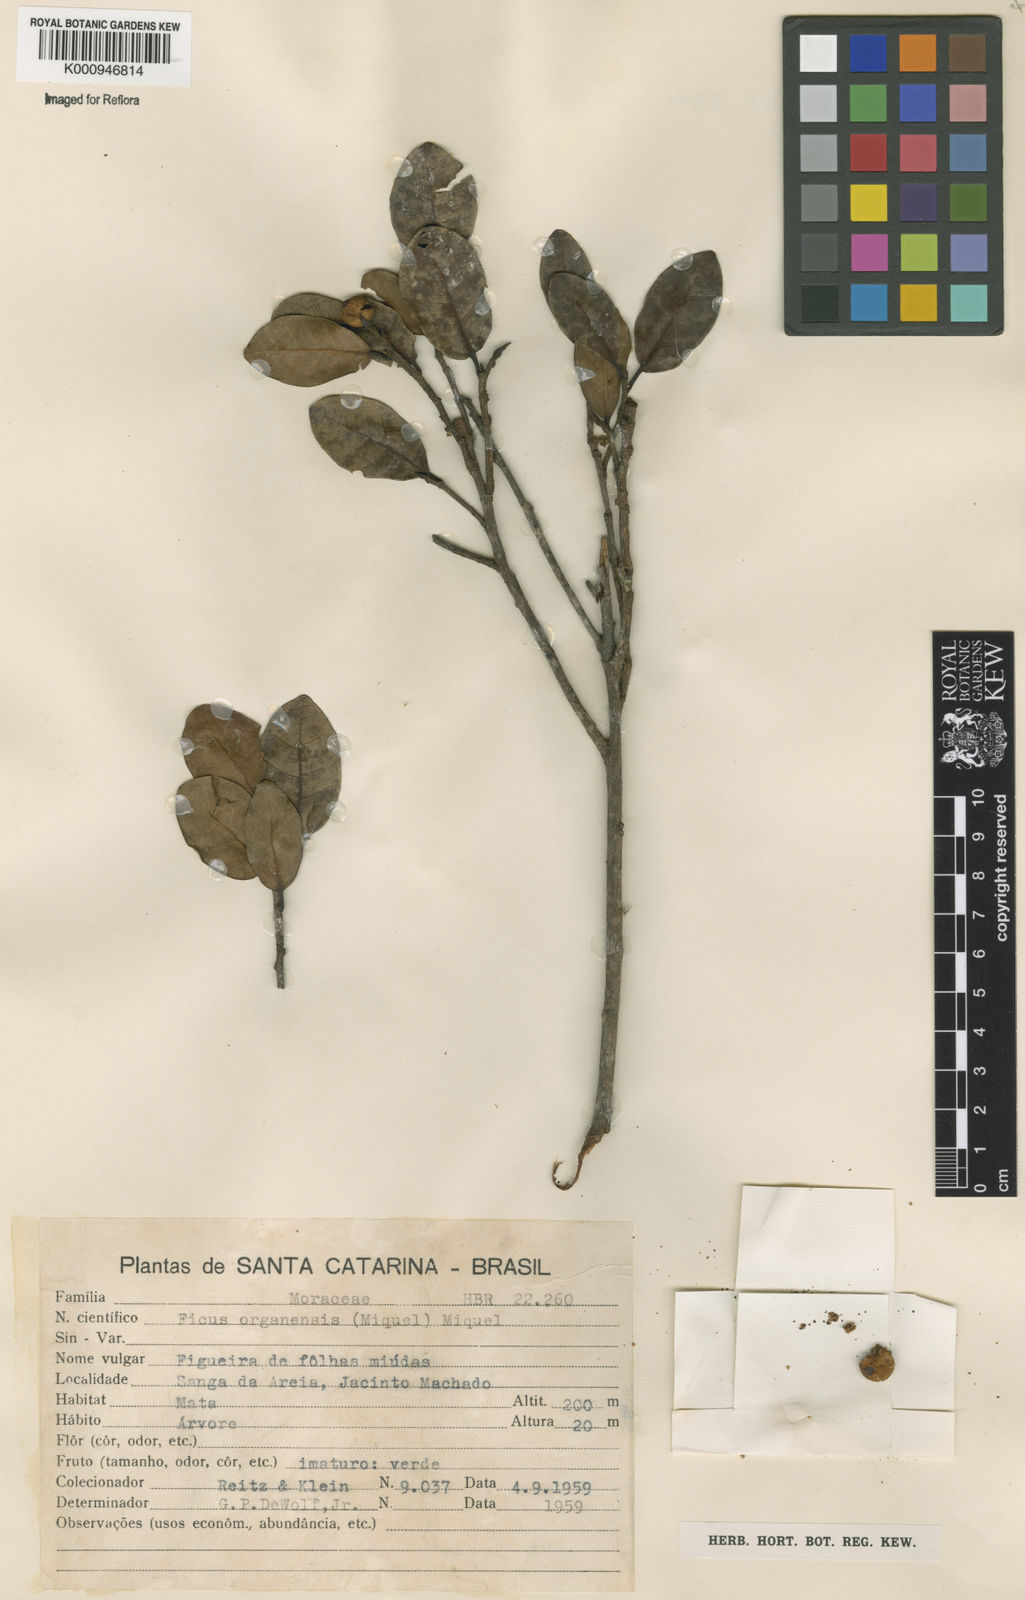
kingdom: Plantae
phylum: Tracheophyta
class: Magnoliopsida
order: Rosales
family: Moraceae
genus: Ficus
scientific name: Ficus organensis
